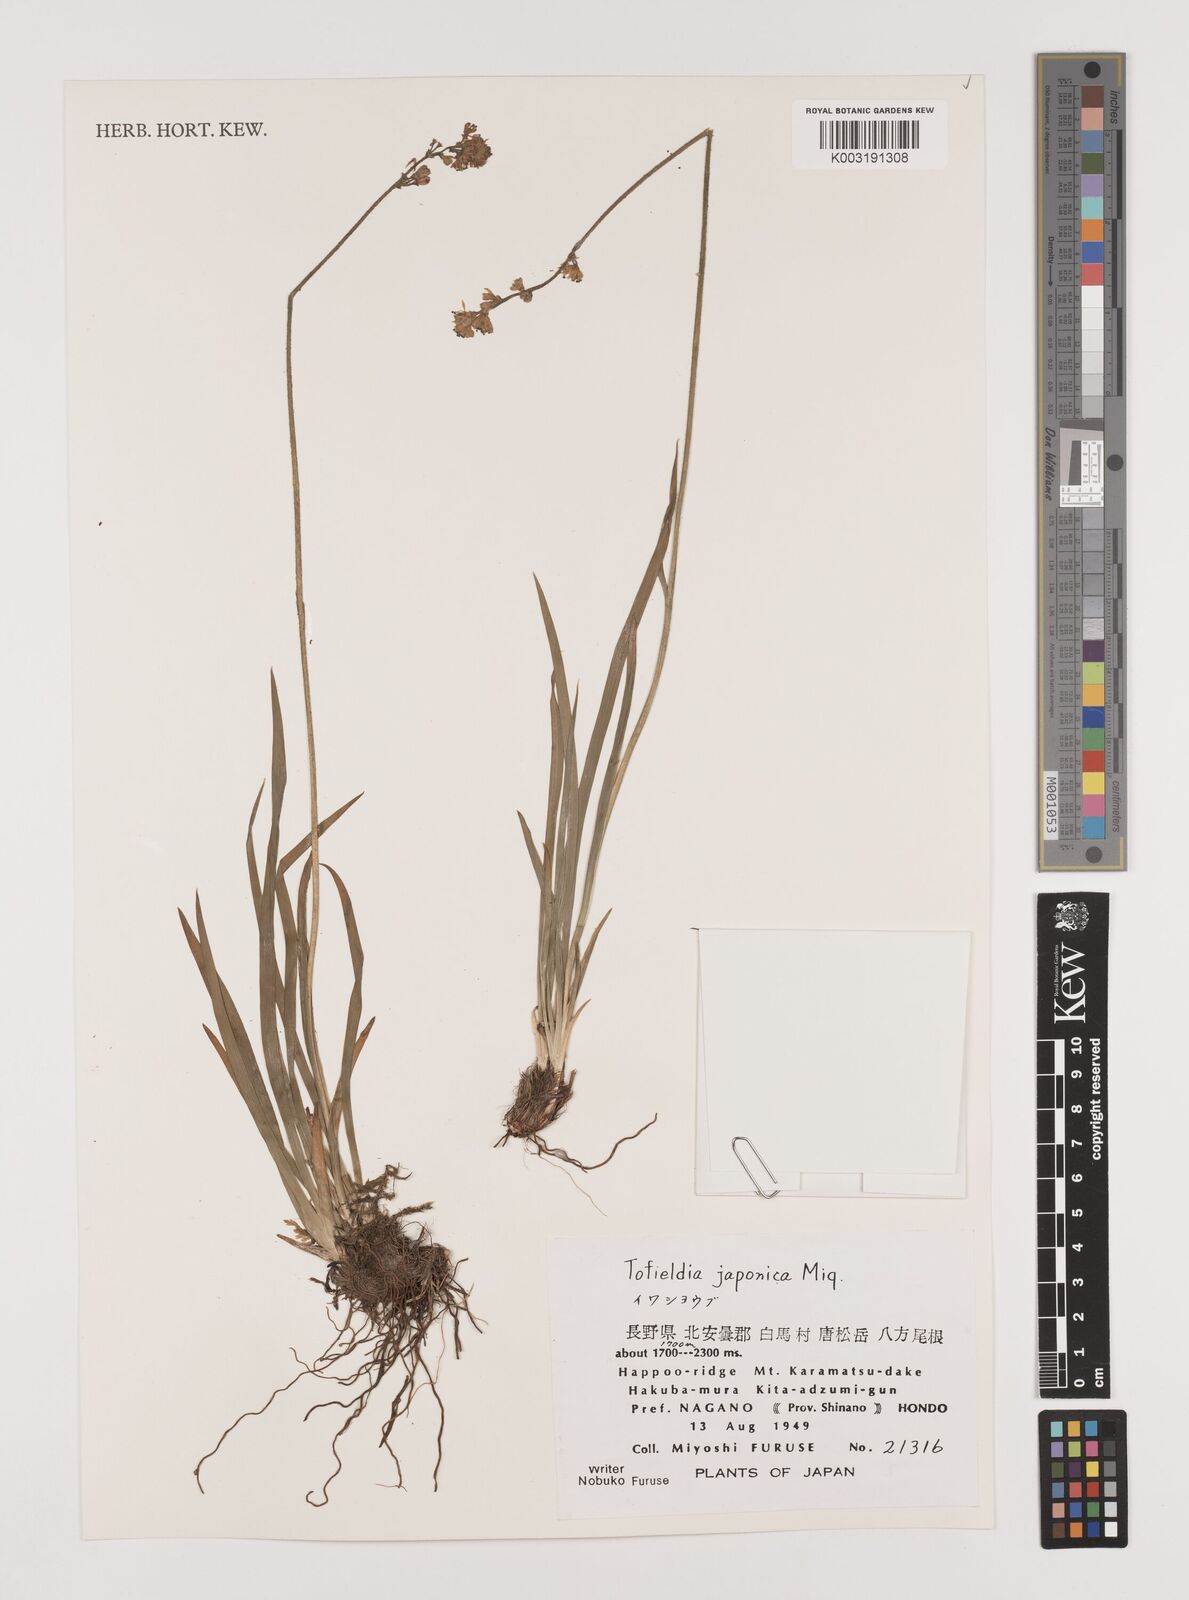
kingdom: Plantae
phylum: Tracheophyta
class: Liliopsida
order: Alismatales
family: Tofieldiaceae
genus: Triantha
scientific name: Triantha japonica
